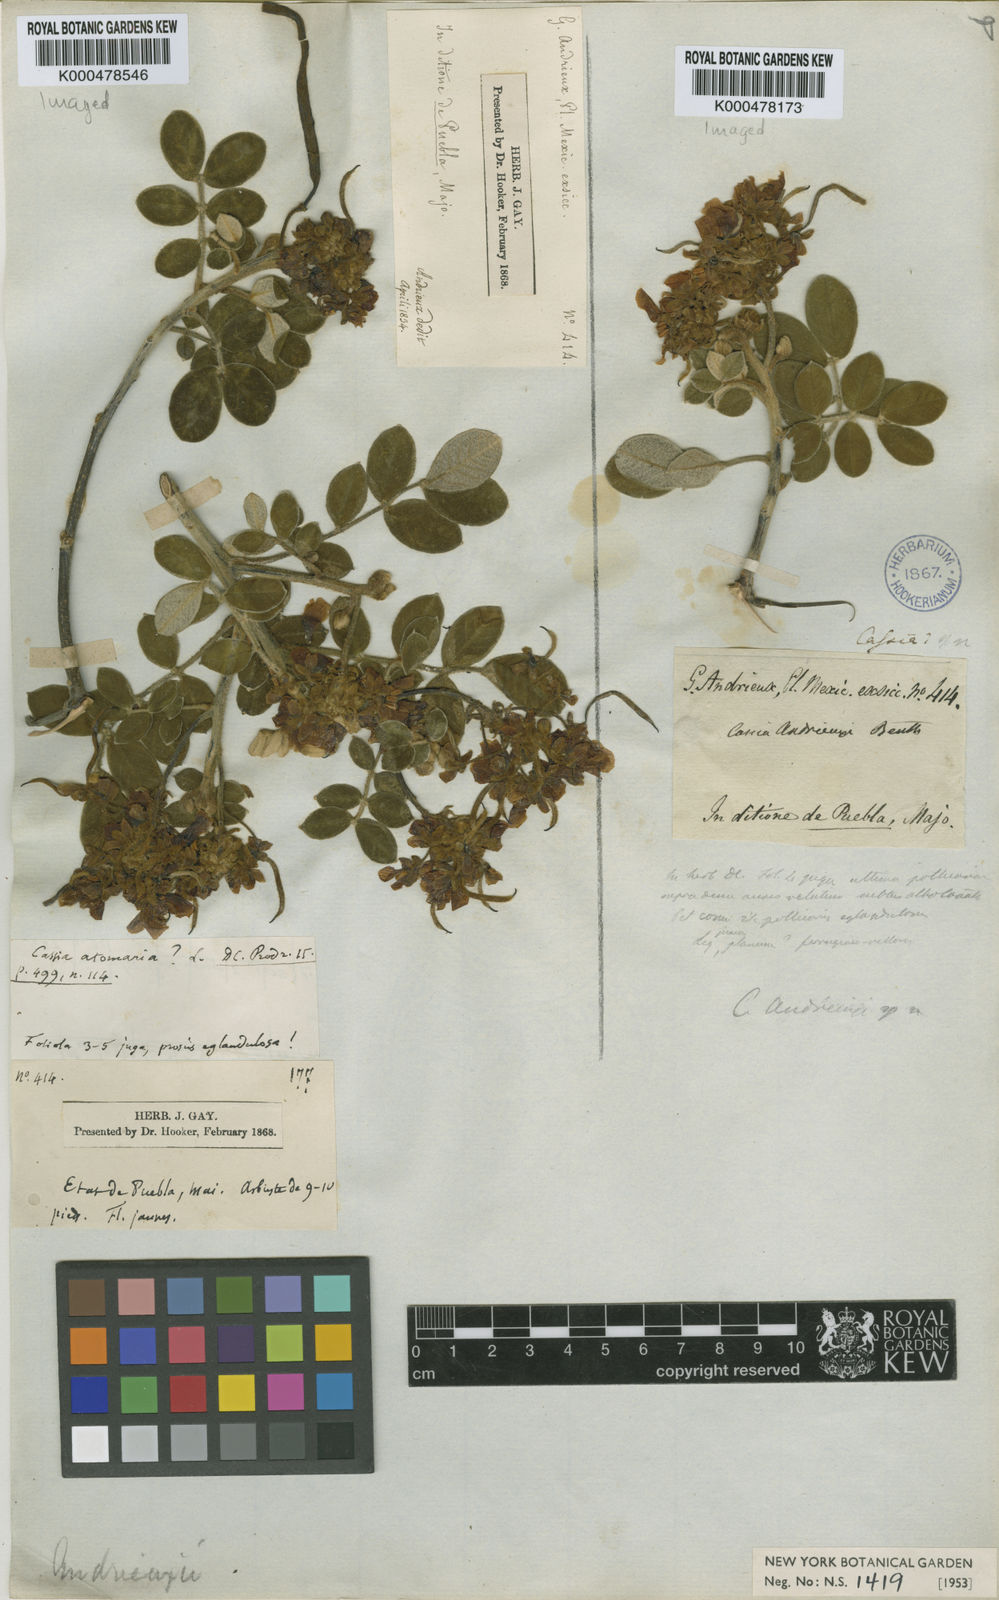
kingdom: Plantae
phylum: Tracheophyta
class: Magnoliopsida
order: Fabales
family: Fabaceae
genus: Senna
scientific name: Senna andrieuxii
